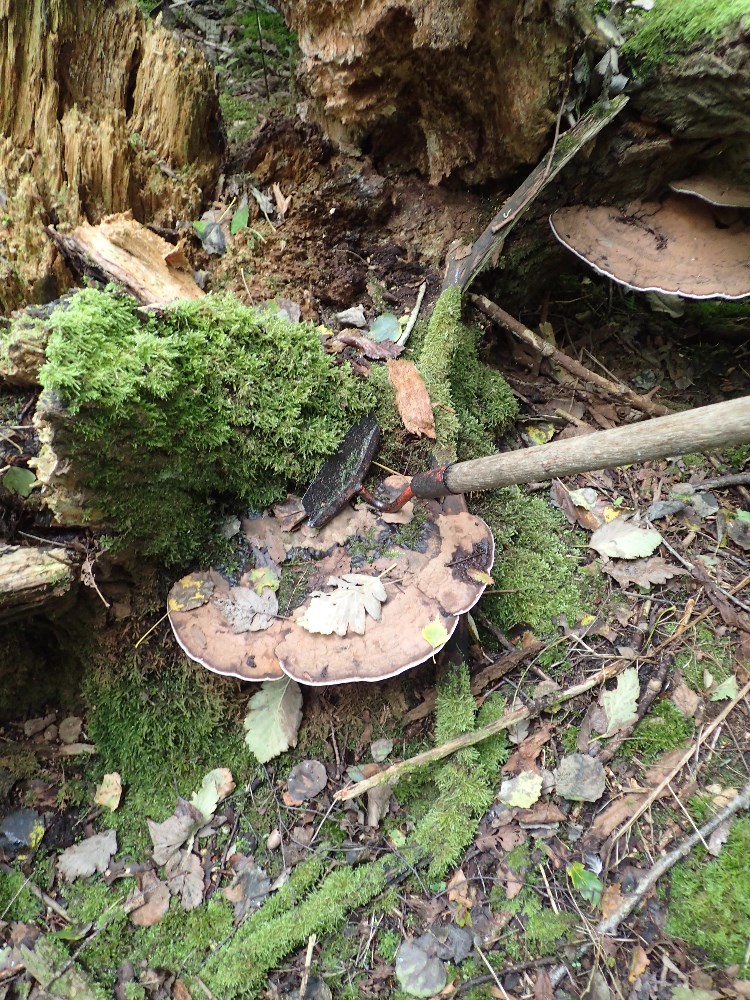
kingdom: Fungi
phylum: Basidiomycota
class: Agaricomycetes
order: Polyporales
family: Polyporaceae
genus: Ganoderma
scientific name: Ganoderma applanatum
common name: flad lakporesvamp
